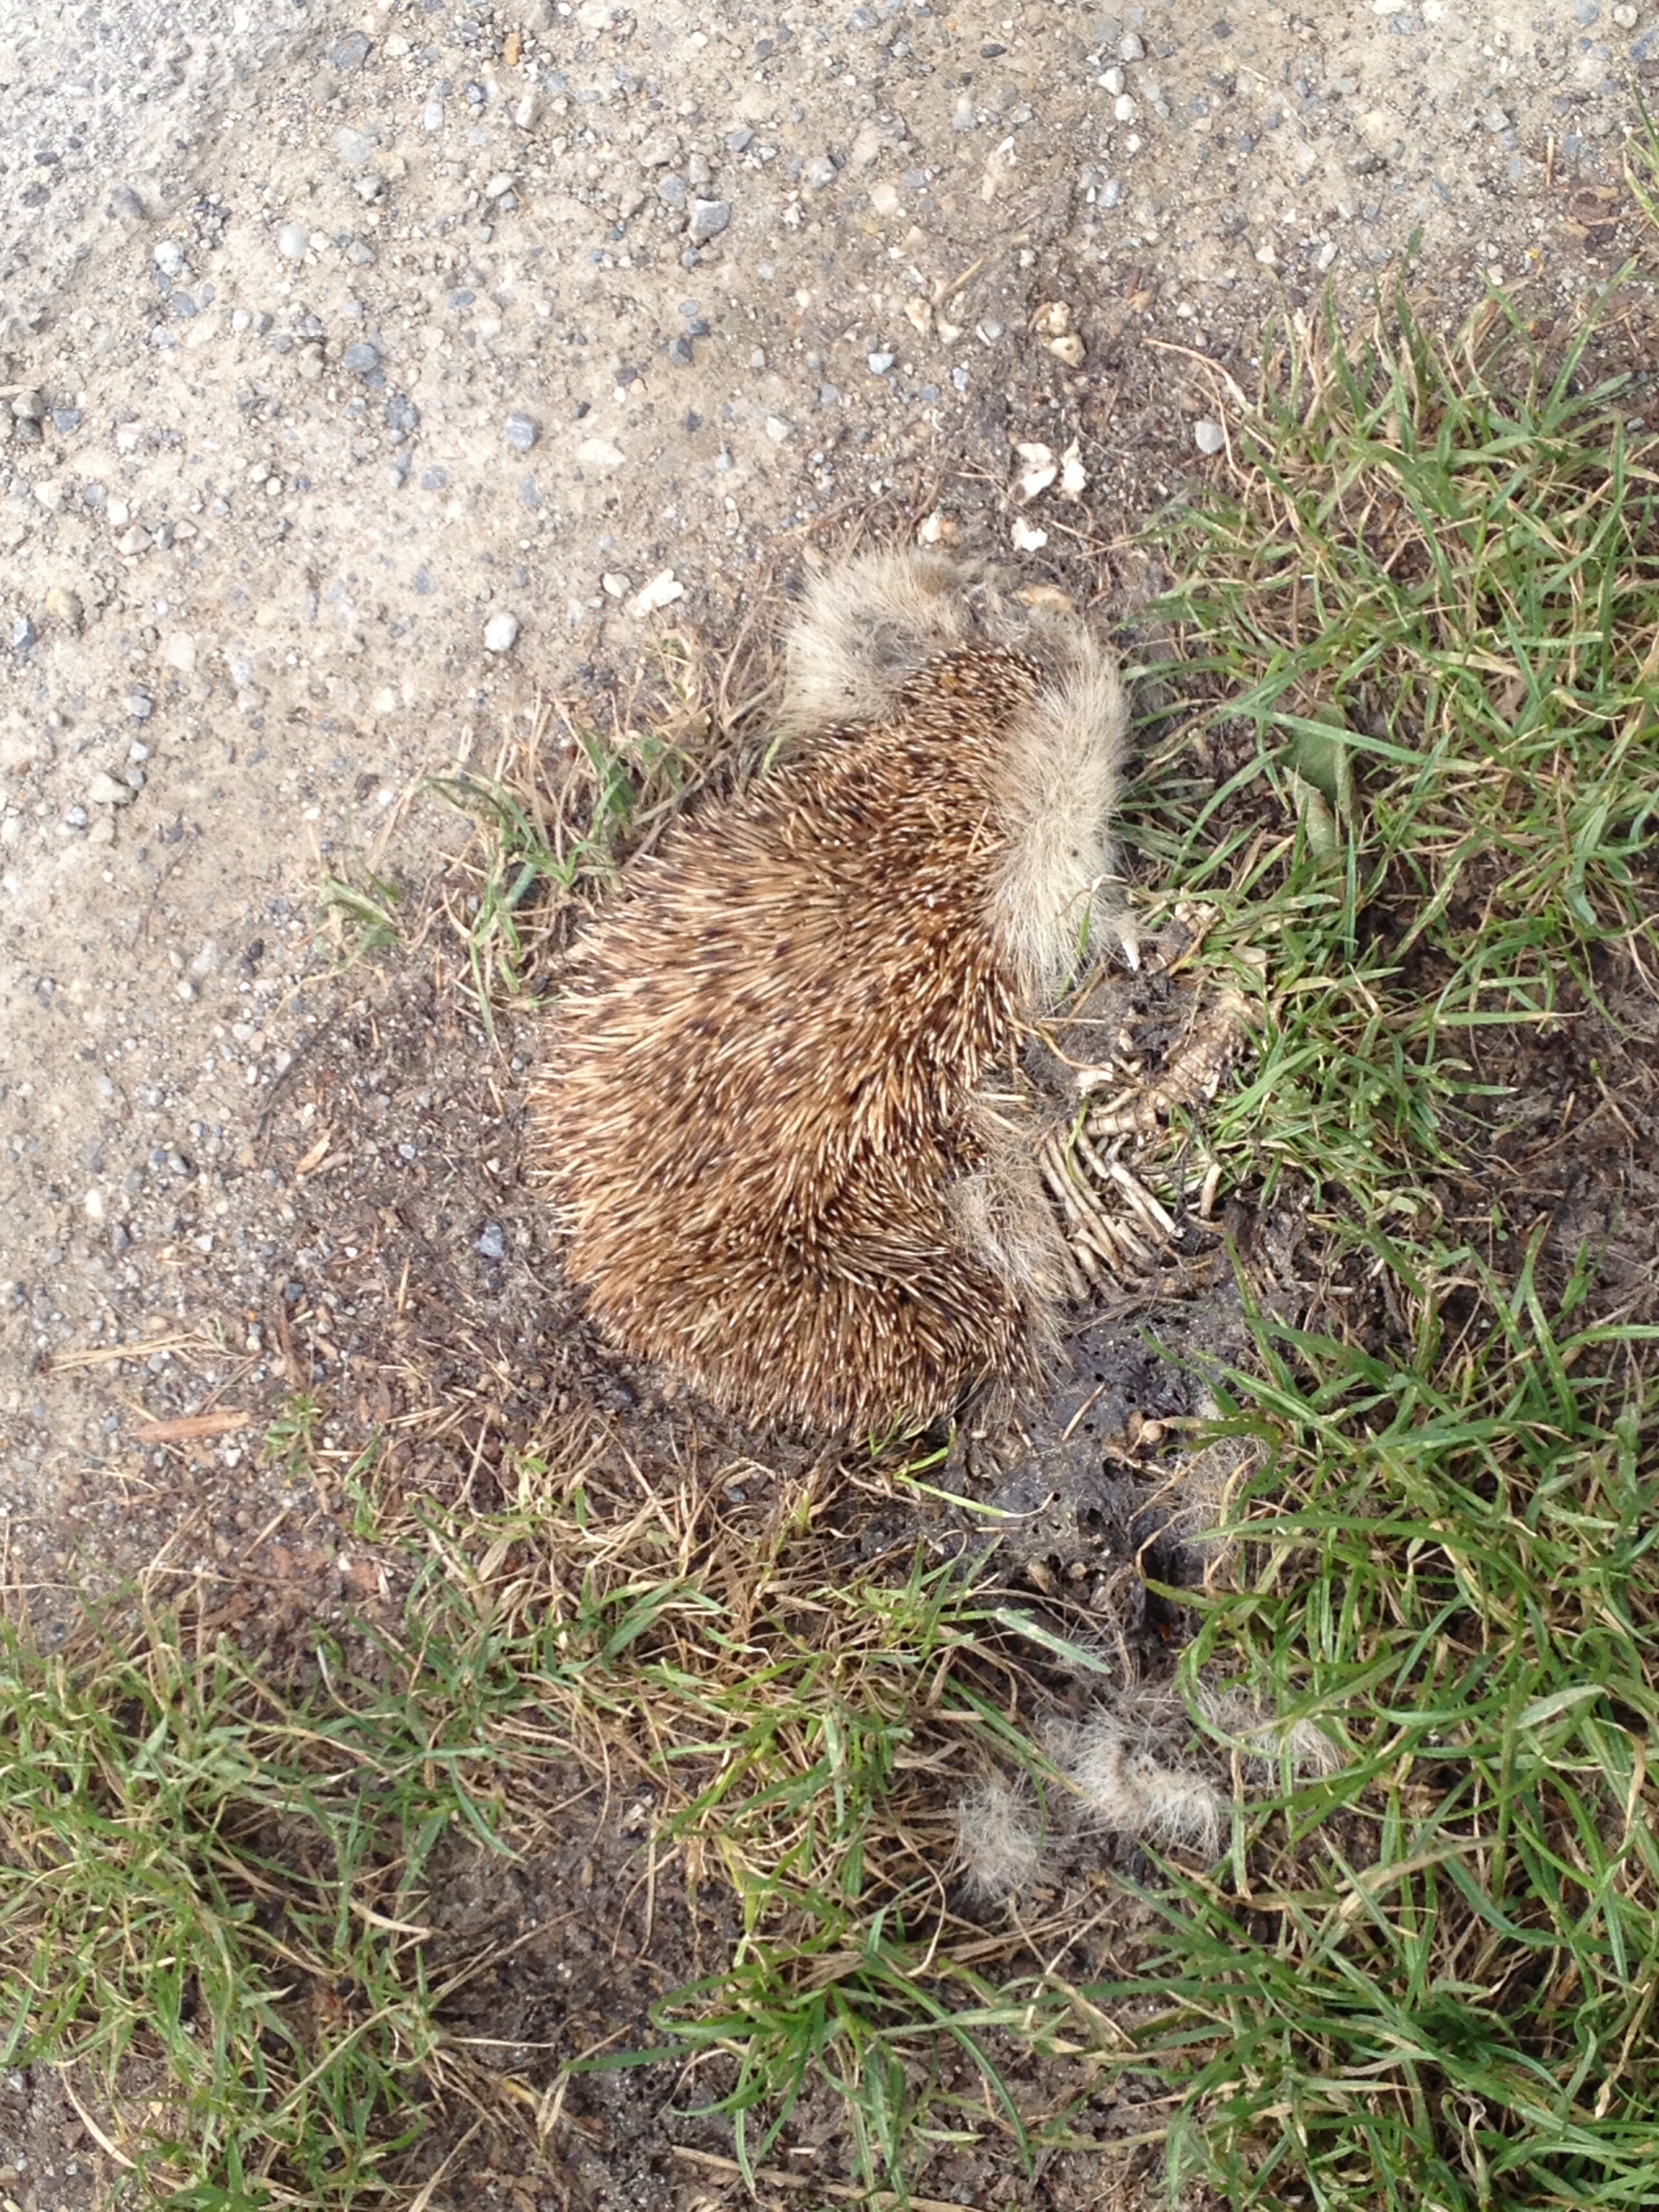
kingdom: Animalia
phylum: Chordata
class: Mammalia
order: Erinaceomorpha
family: Erinaceidae
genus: Erinaceus
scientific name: Erinaceus
